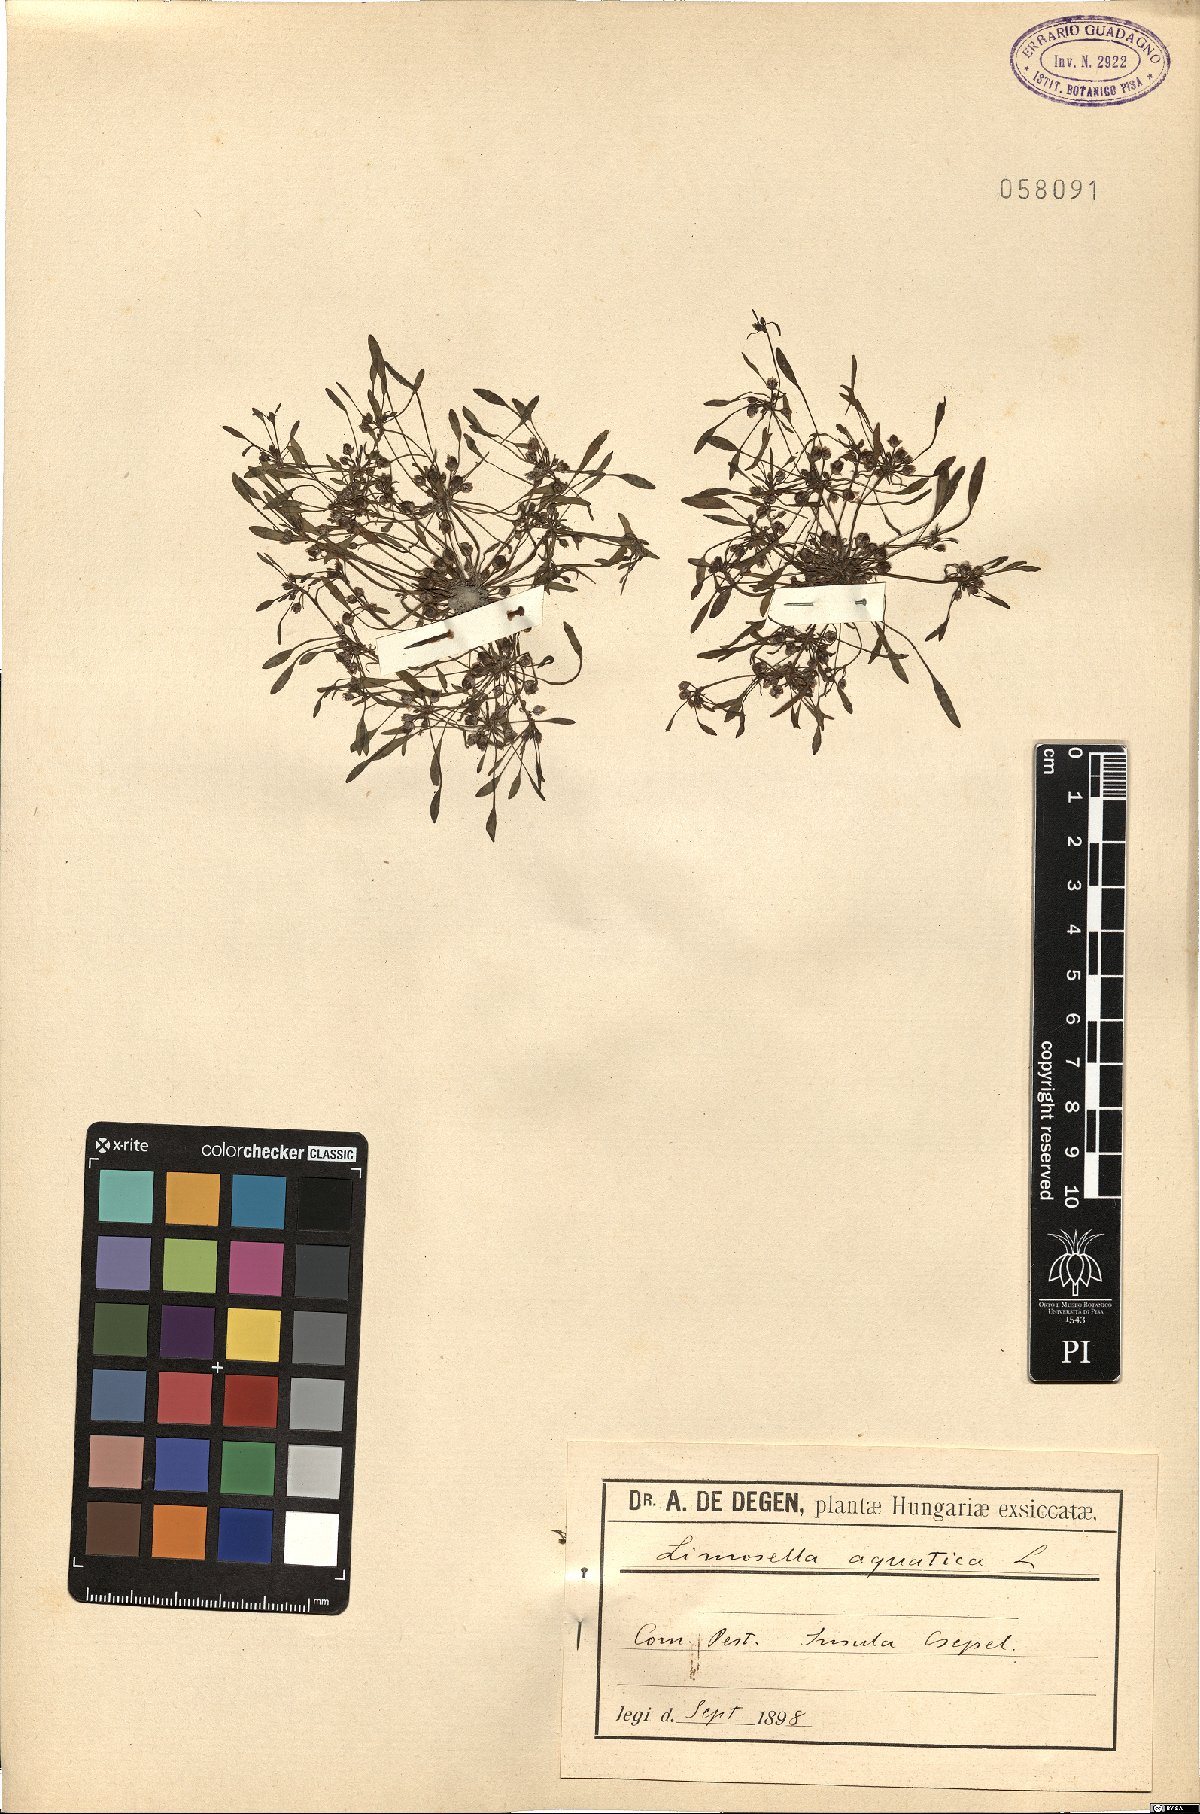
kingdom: Plantae
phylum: Tracheophyta
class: Magnoliopsida
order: Lamiales
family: Scrophulariaceae
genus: Limosella
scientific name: Limosella aquatica
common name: Mudwort
